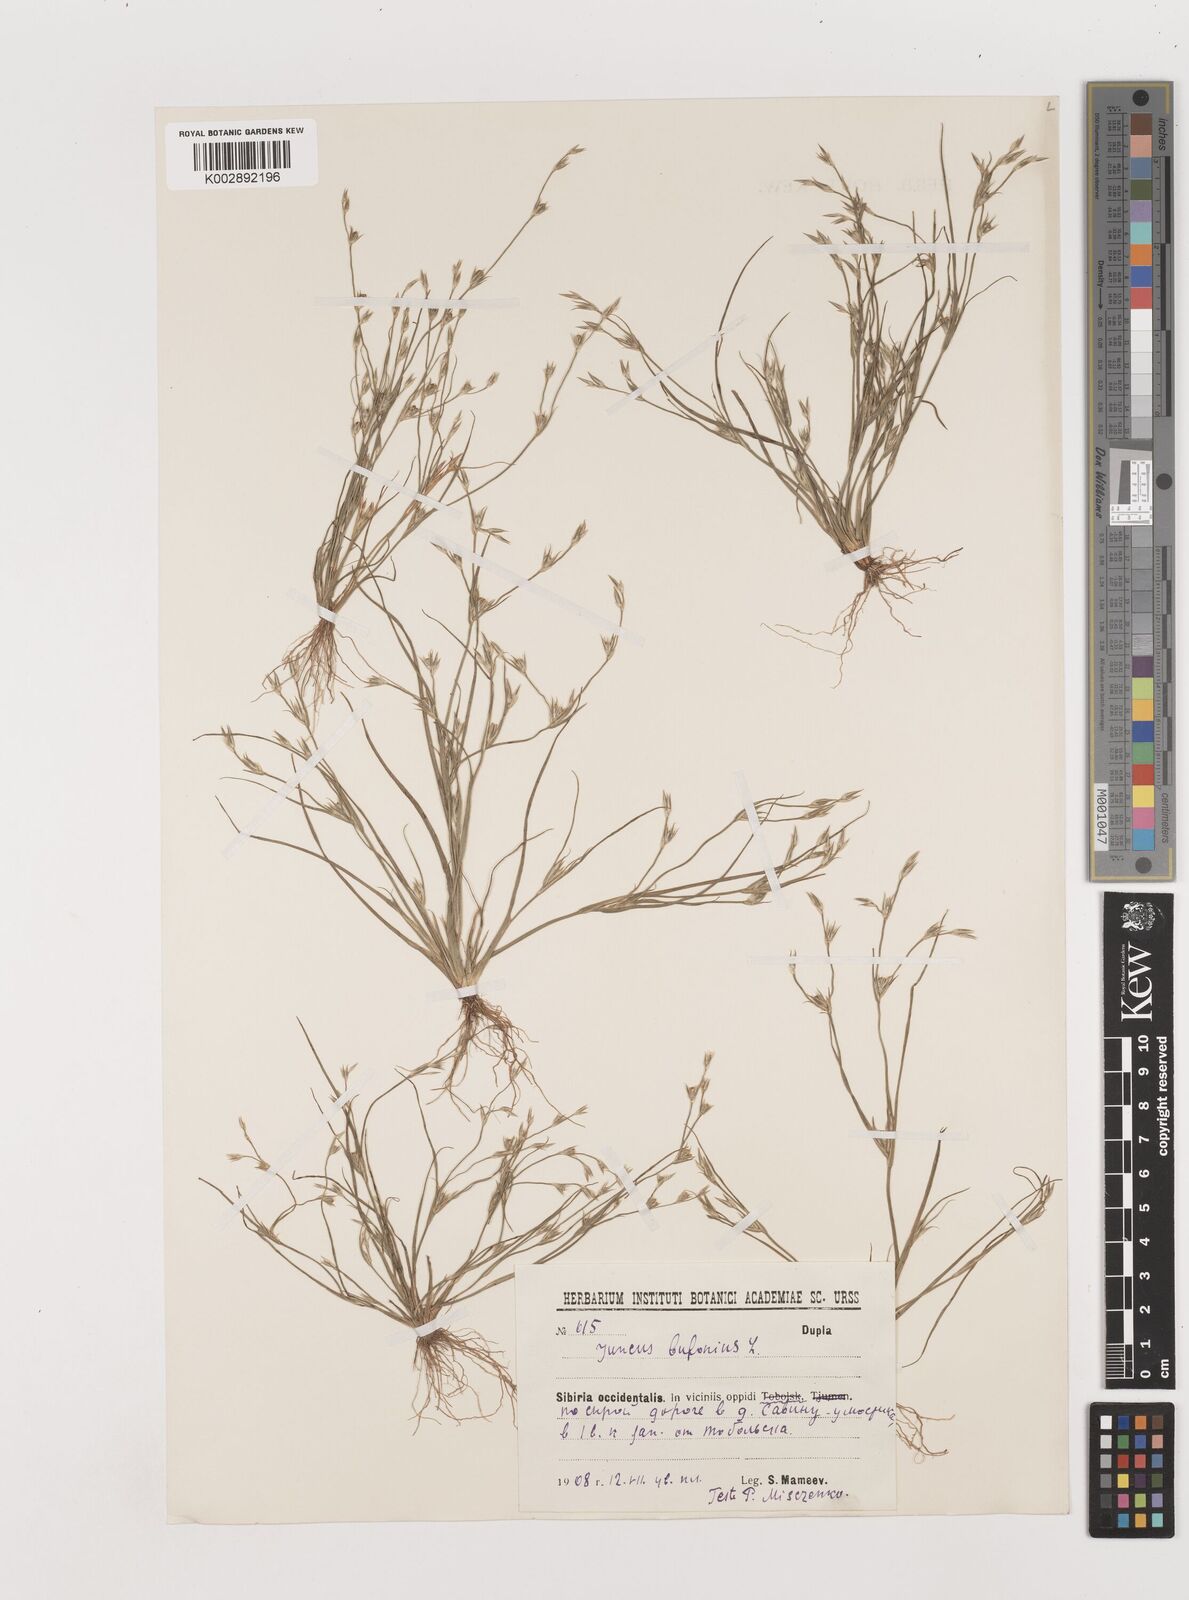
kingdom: Plantae
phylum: Tracheophyta
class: Liliopsida
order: Poales
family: Juncaceae
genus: Juncus
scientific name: Juncus bufonius
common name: Toad rush
